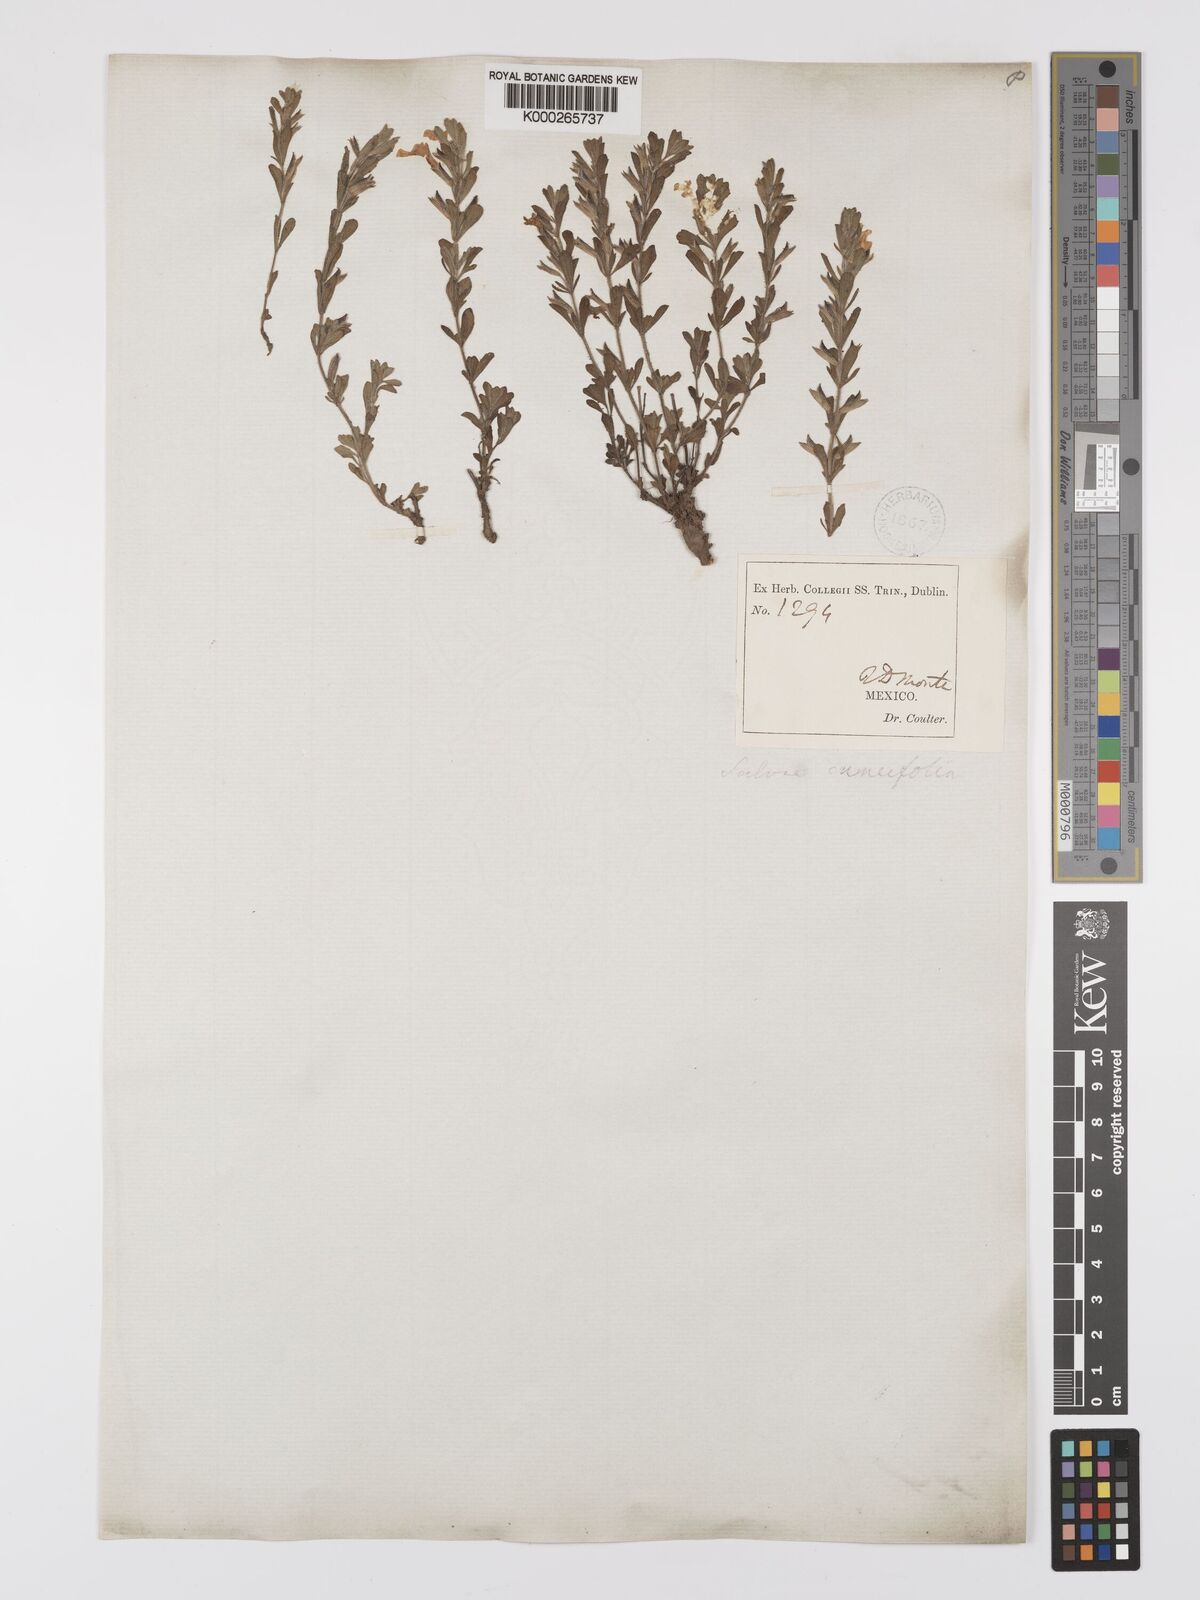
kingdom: Plantae
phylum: Tracheophyta
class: Magnoliopsida
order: Lamiales
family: Lamiaceae
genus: Salvia
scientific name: Salvia
